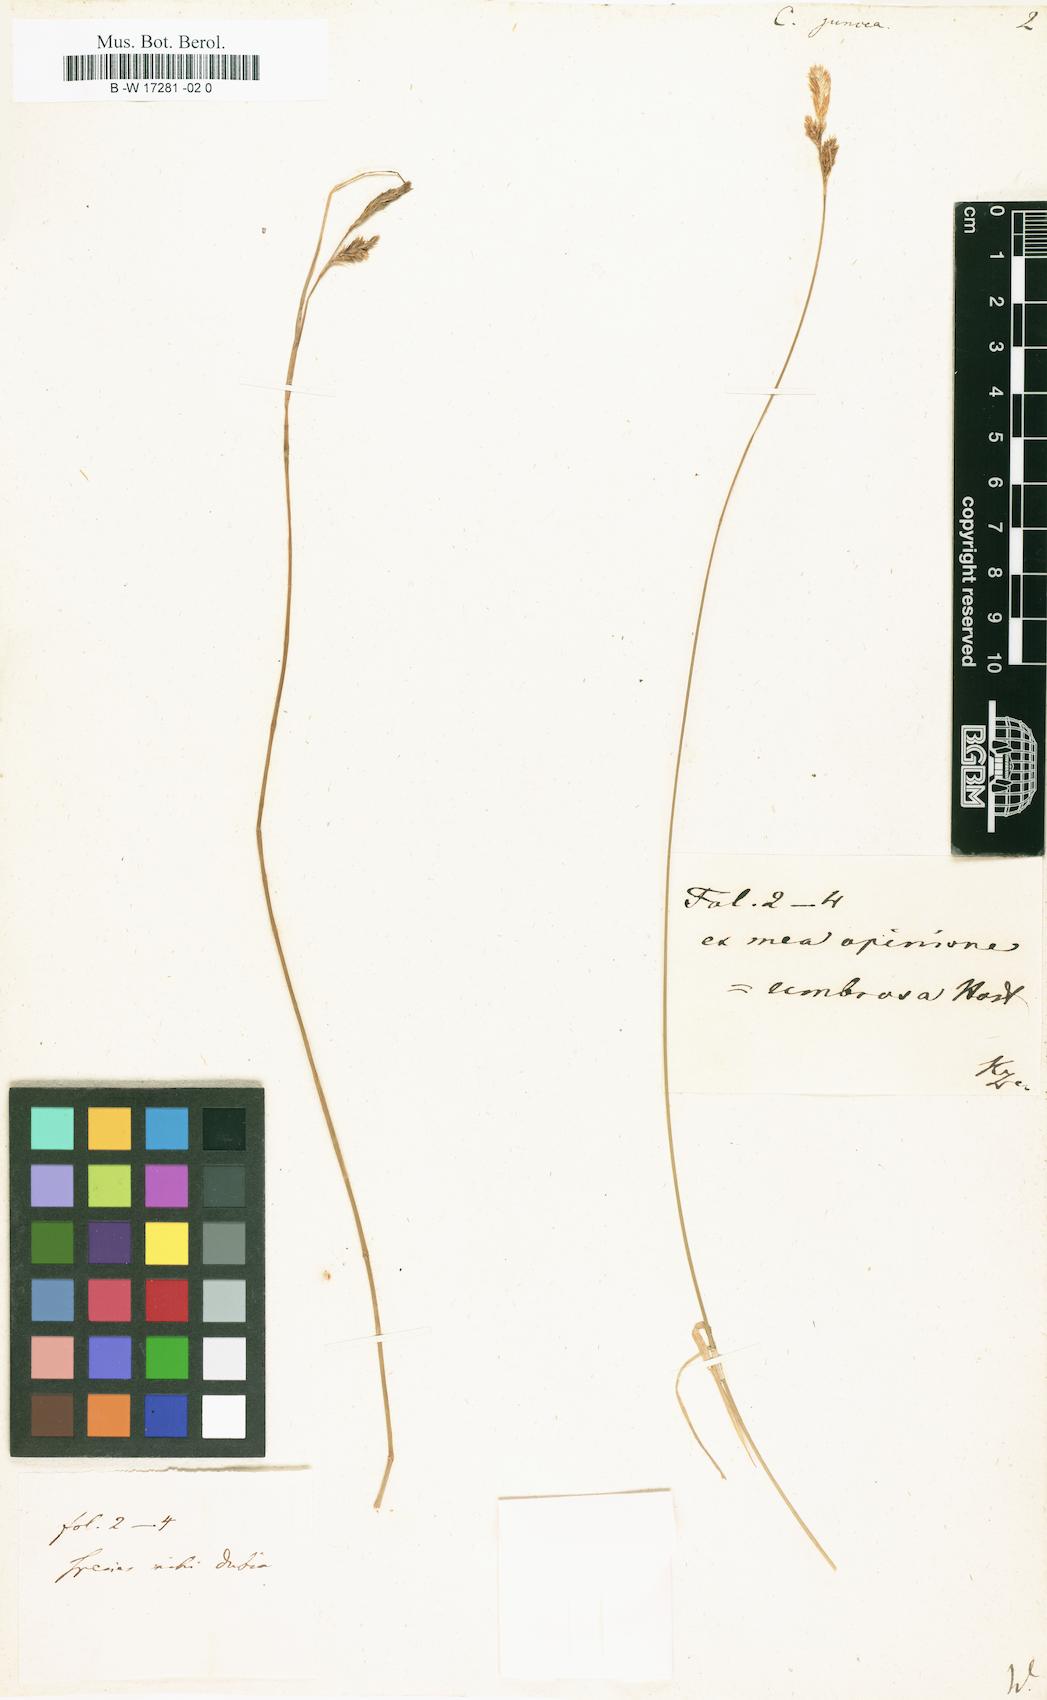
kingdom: Plantae
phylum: Tracheophyta
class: Liliopsida
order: Poales
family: Cyperaceae
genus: Carex
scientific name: Carex misera
